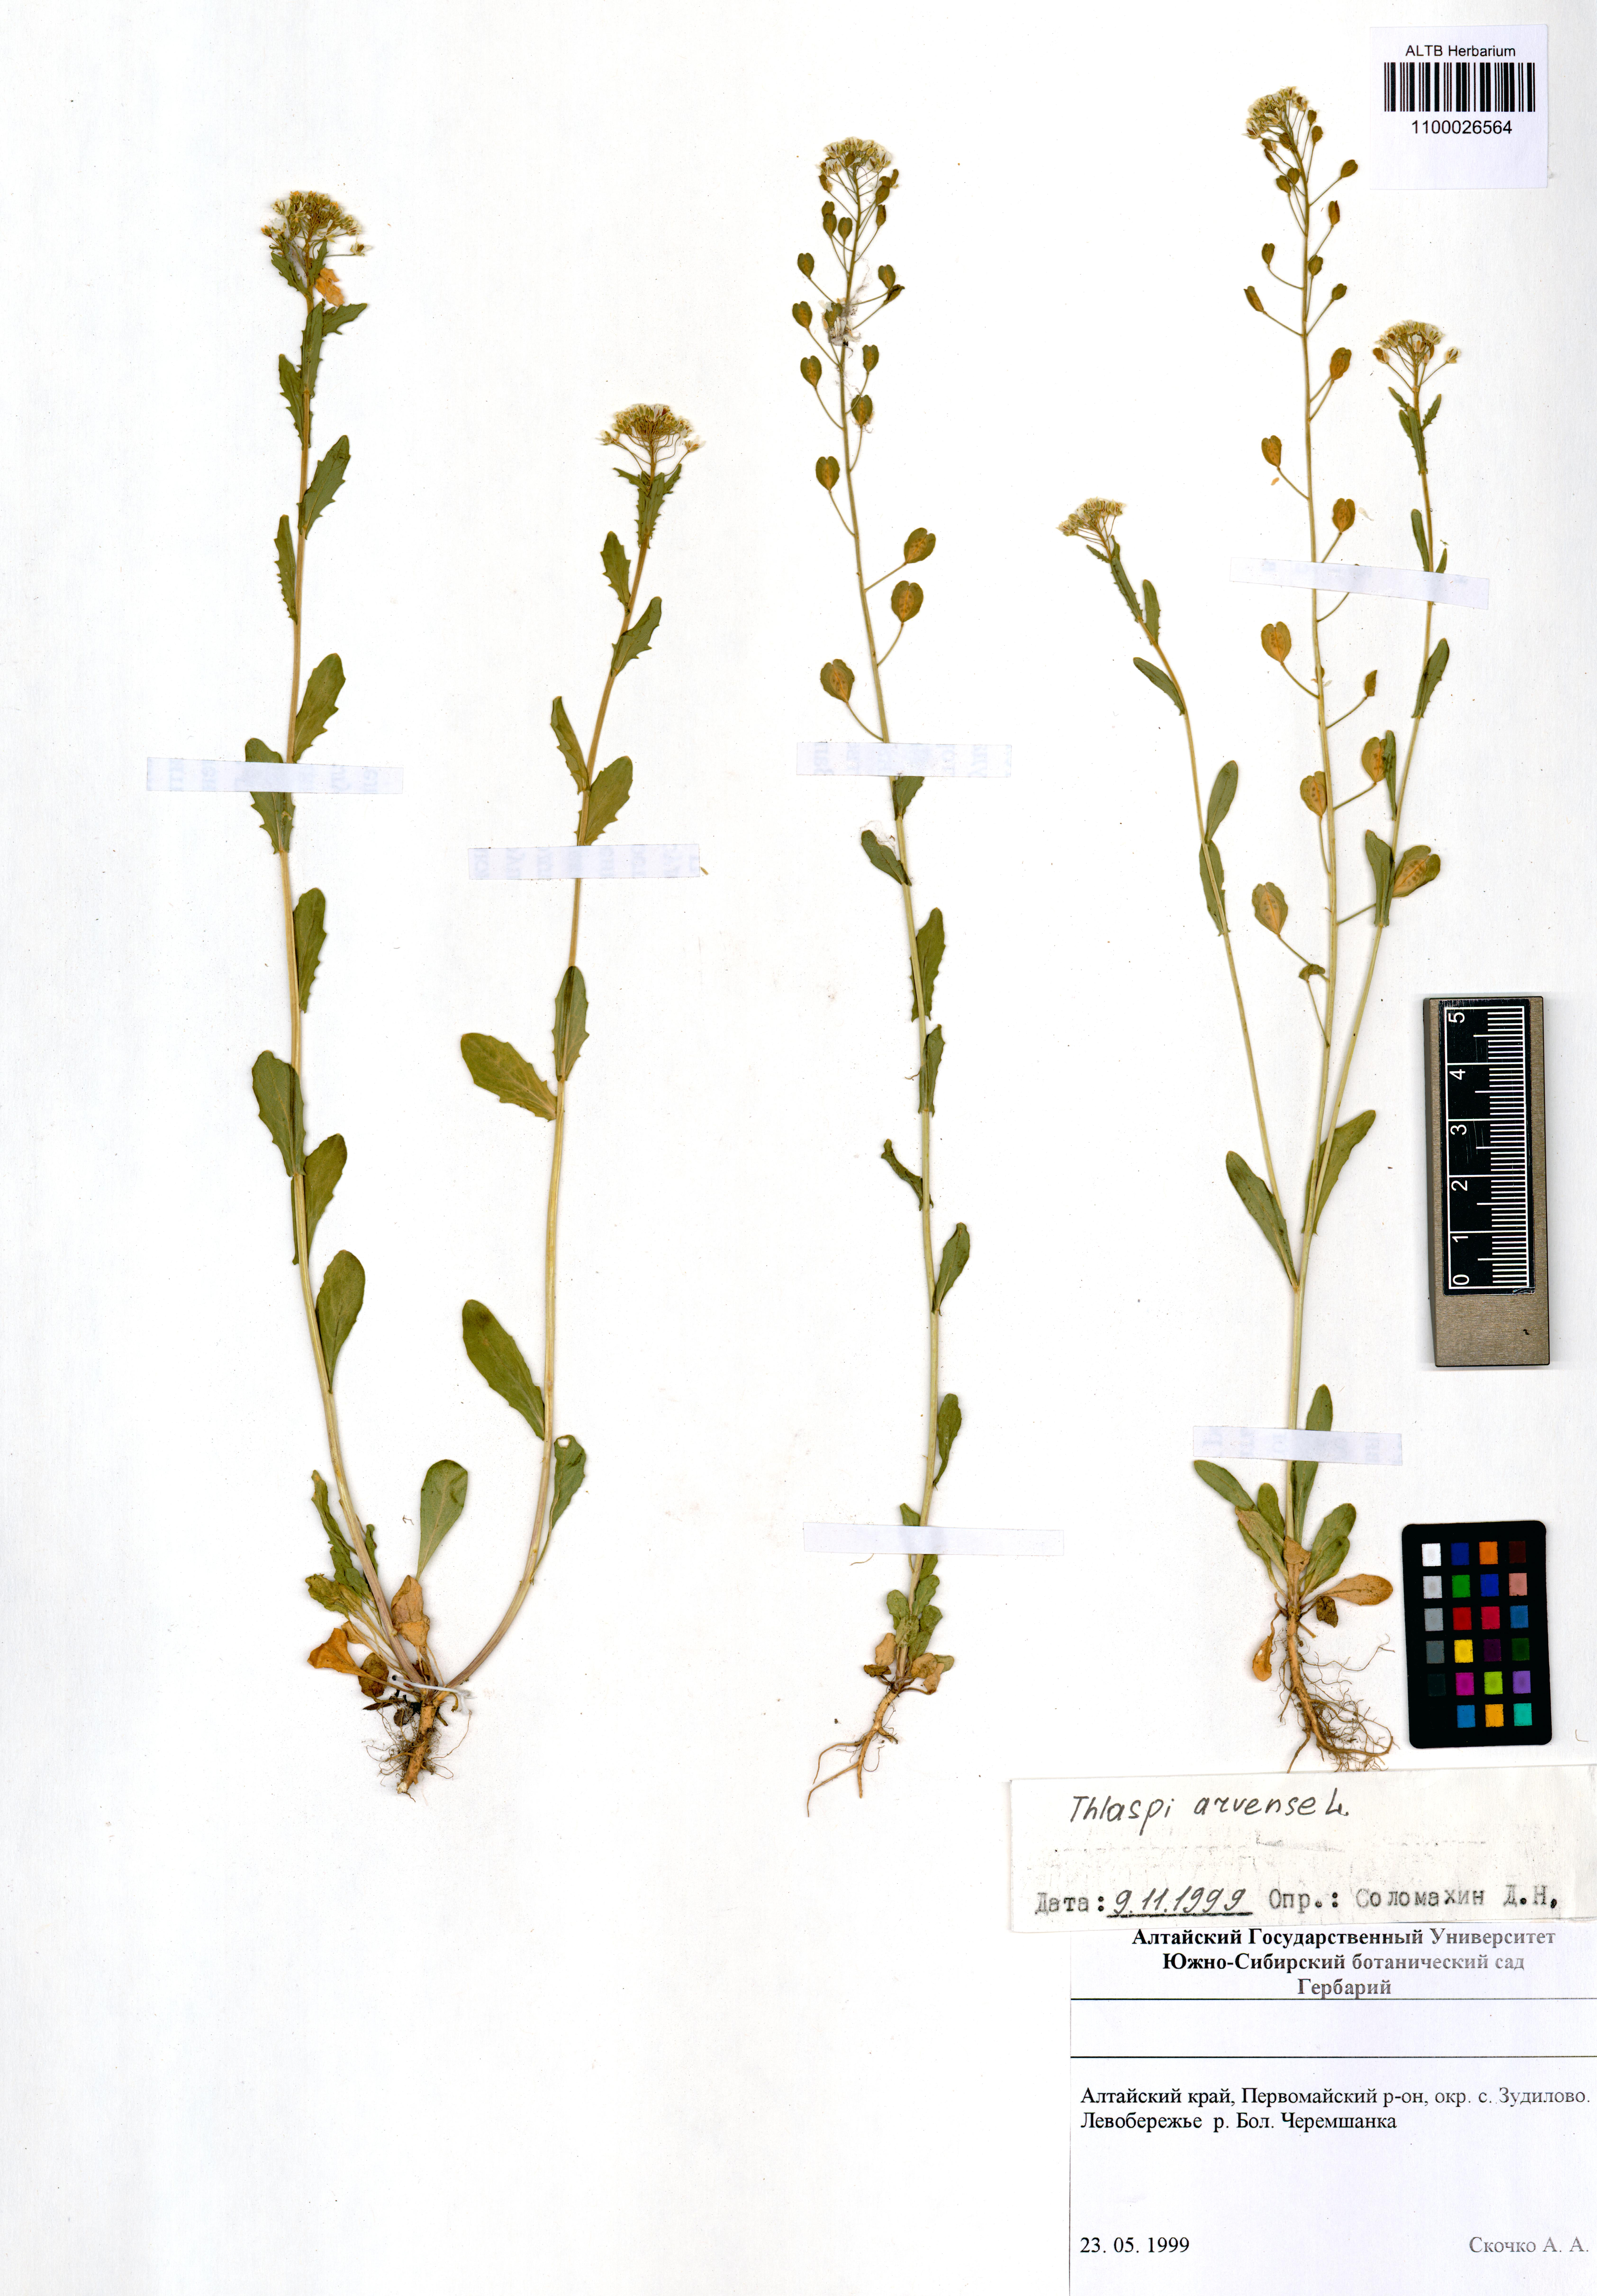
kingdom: Plantae
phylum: Tracheophyta
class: Magnoliopsida
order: Brassicales
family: Brassicaceae
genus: Thlaspi
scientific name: Thlaspi arvense
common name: Field pennycress
